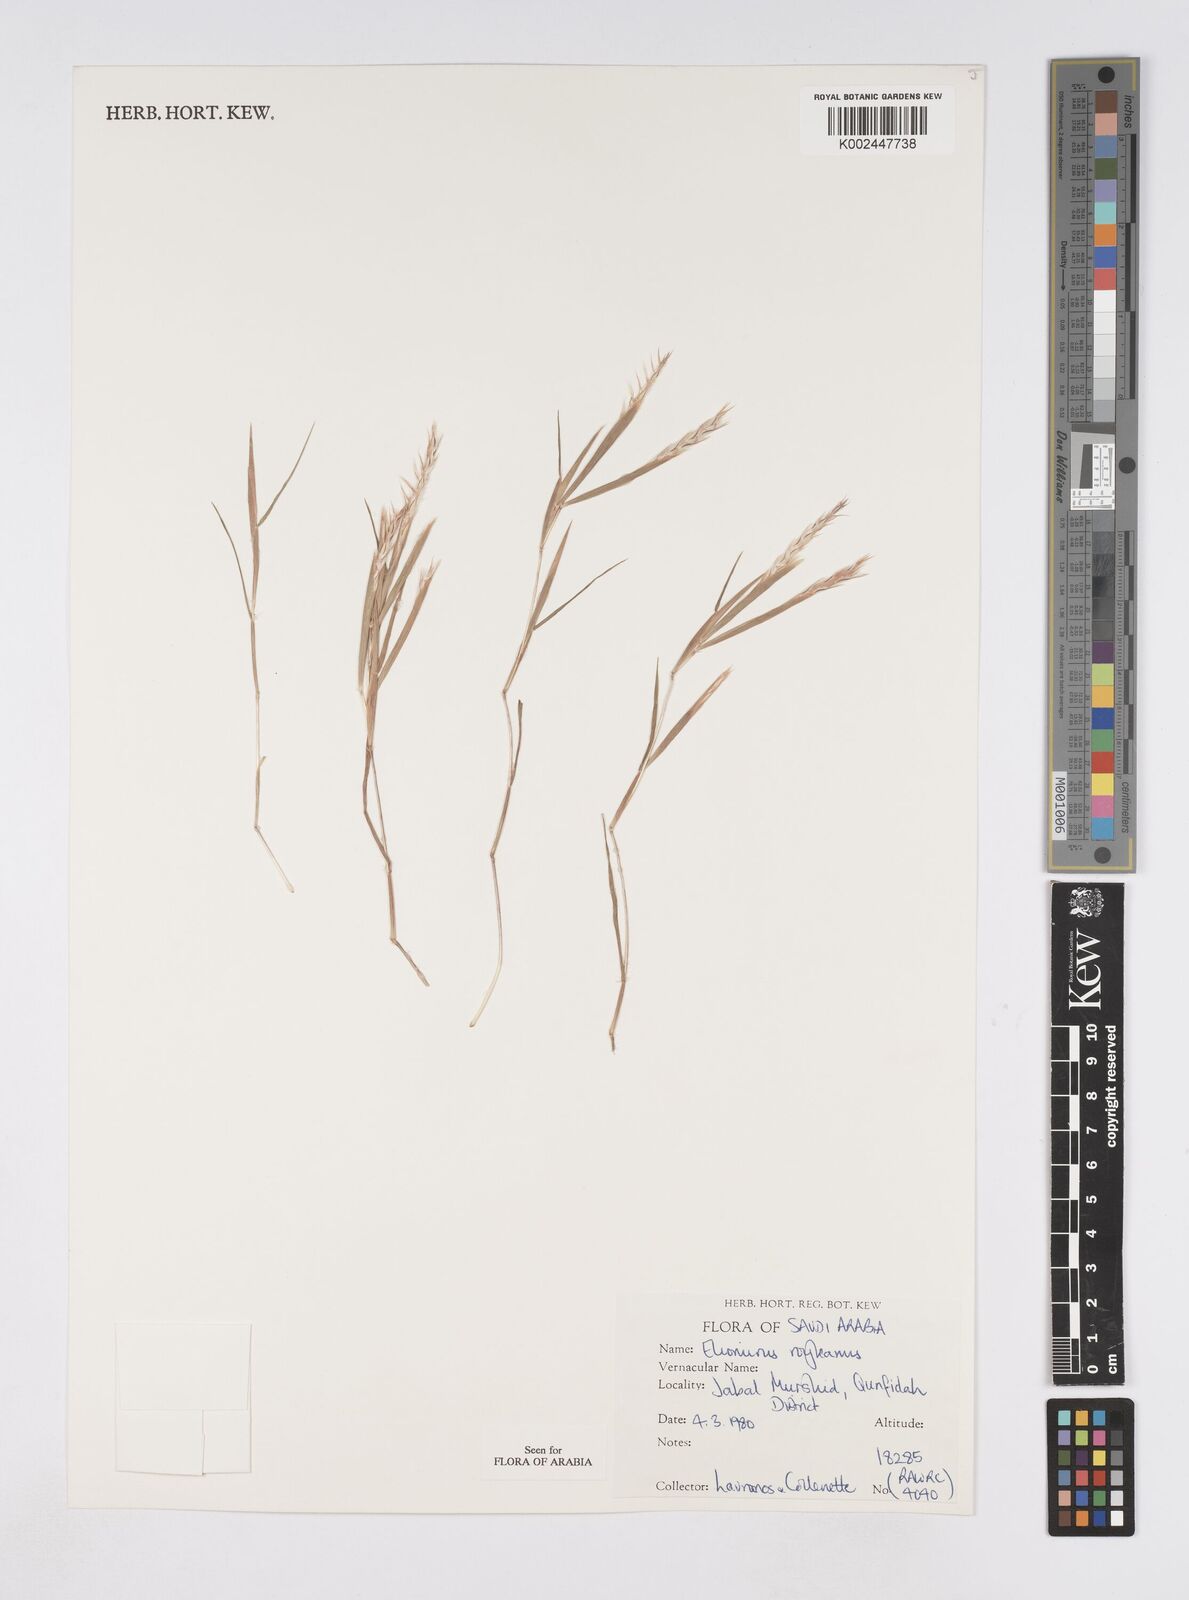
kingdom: Plantae
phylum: Tracheophyta
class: Liliopsida
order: Poales
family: Poaceae
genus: Elionurus
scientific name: Elionurus royleanus
